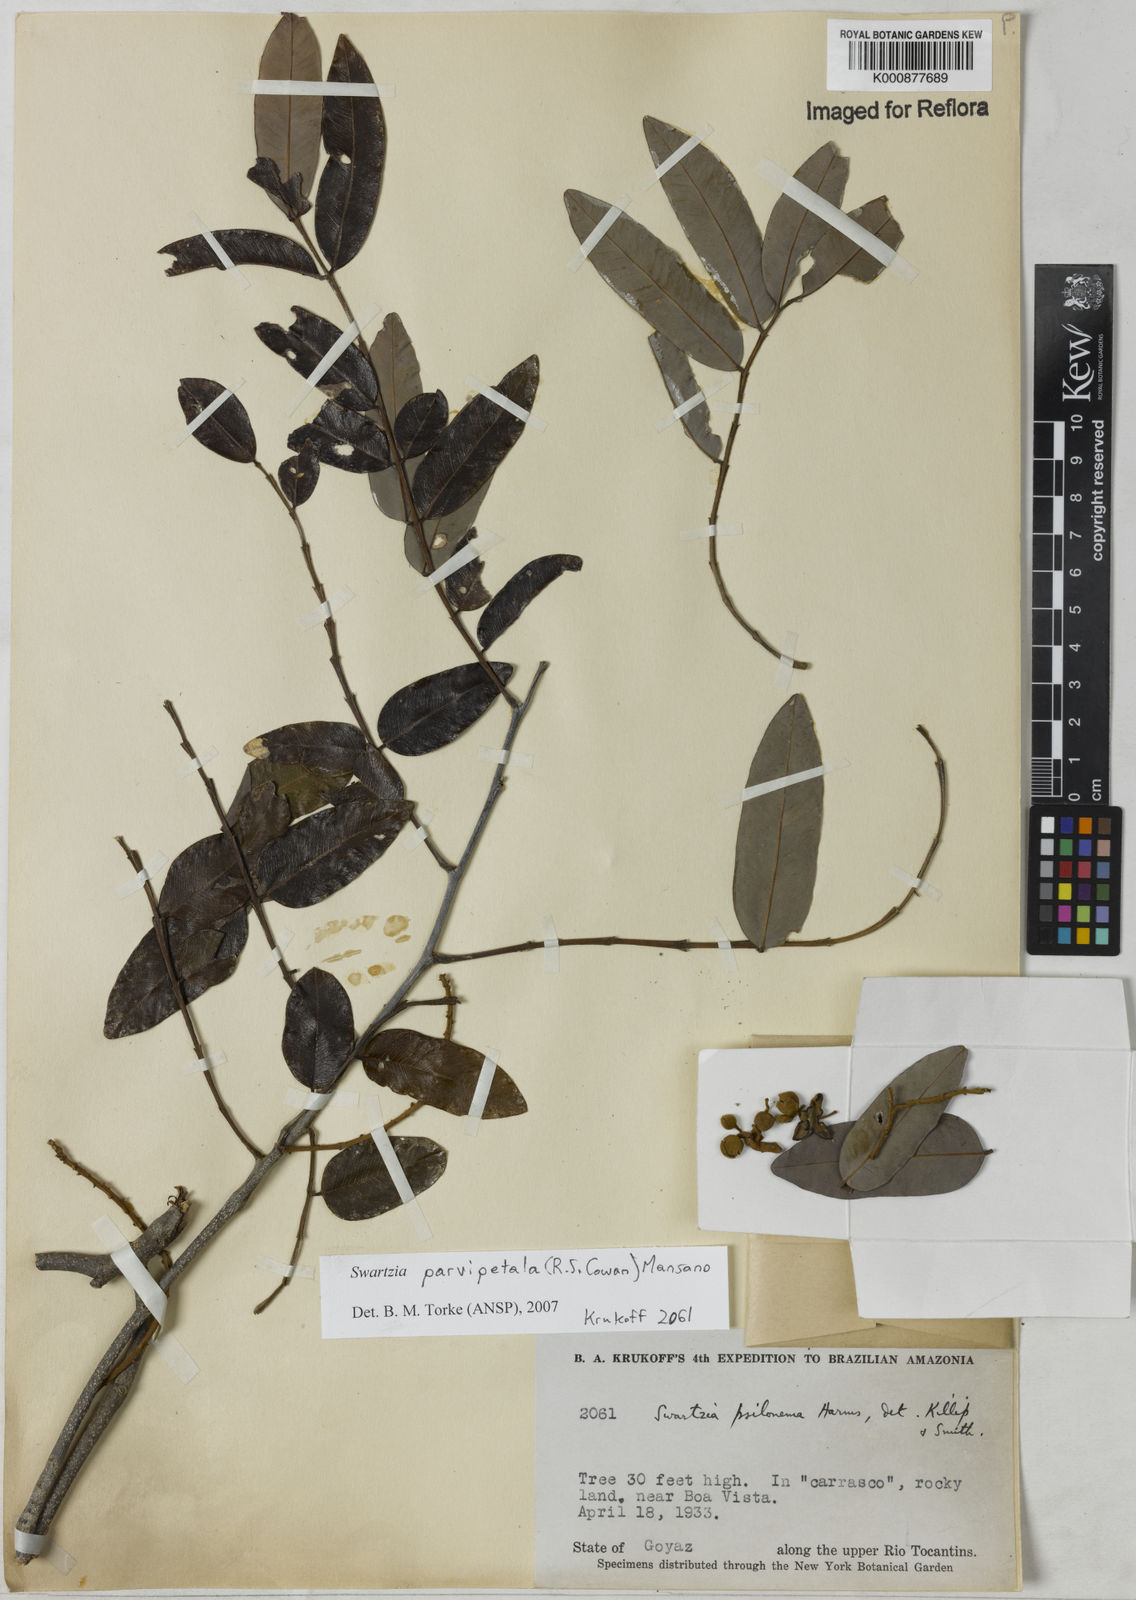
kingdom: Plantae
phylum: Tracheophyta
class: Magnoliopsida
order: Fabales
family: Fabaceae
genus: Swartzia
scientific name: Swartzia parvipetala
